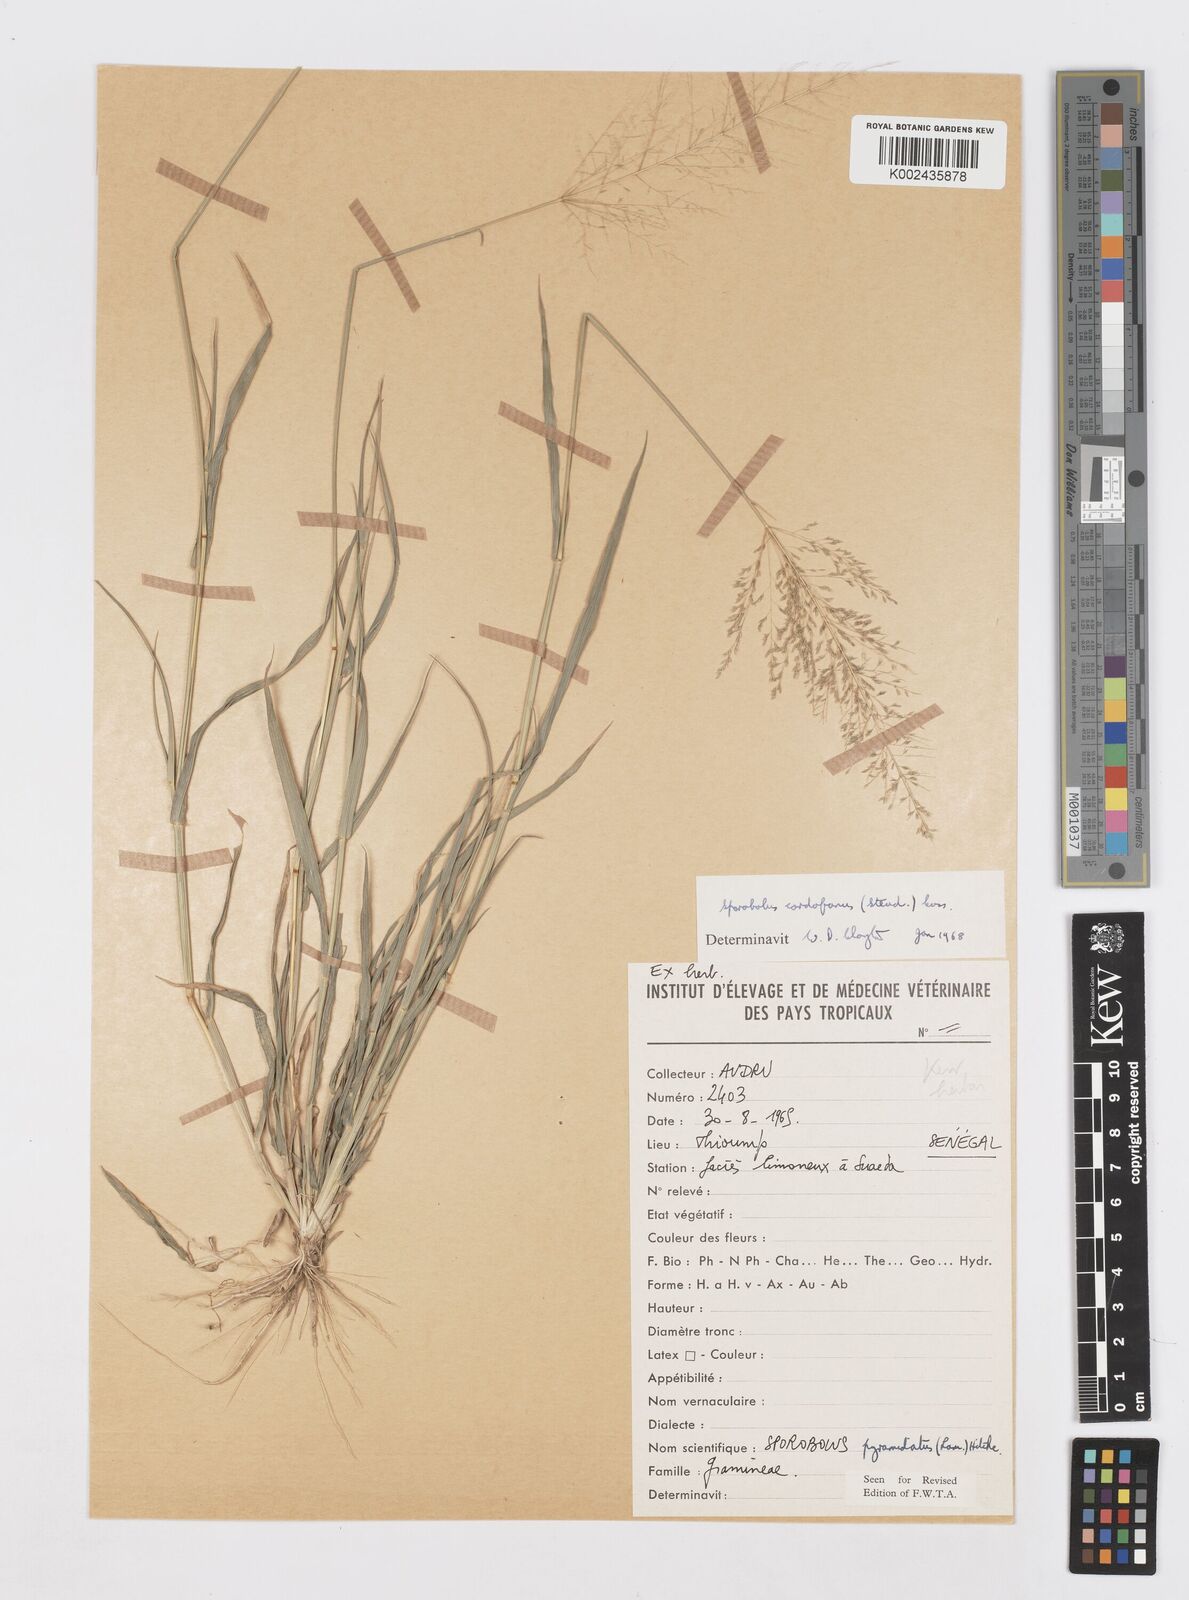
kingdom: Plantae
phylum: Tracheophyta
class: Liliopsida
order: Poales
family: Poaceae
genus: Sporobolus
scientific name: Sporobolus cordofanus
